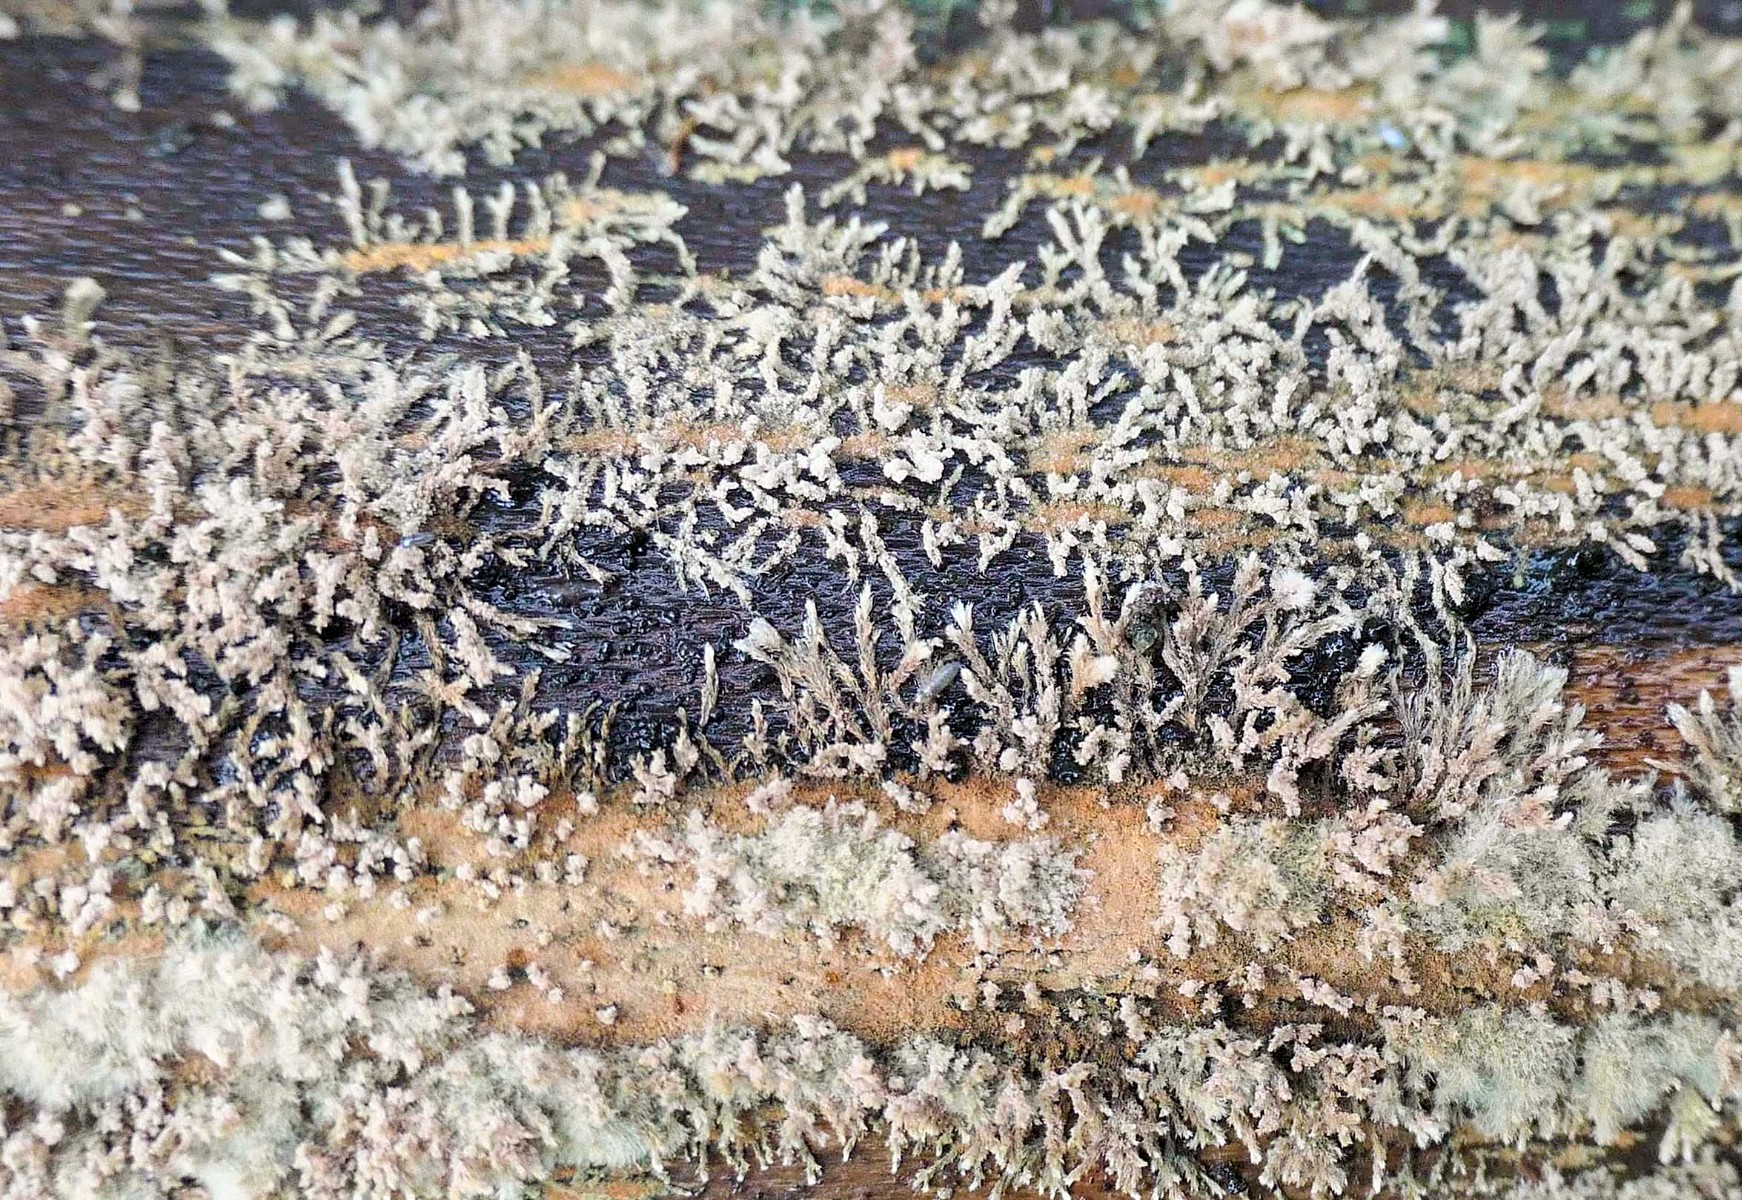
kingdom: Fungi
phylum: Ascomycota
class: Sordariomycetes
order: Xylariales
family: Hypoxylaceae
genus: Hypoxylon
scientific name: Hypoxylon howeanum
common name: halvkugleformet kulbær
